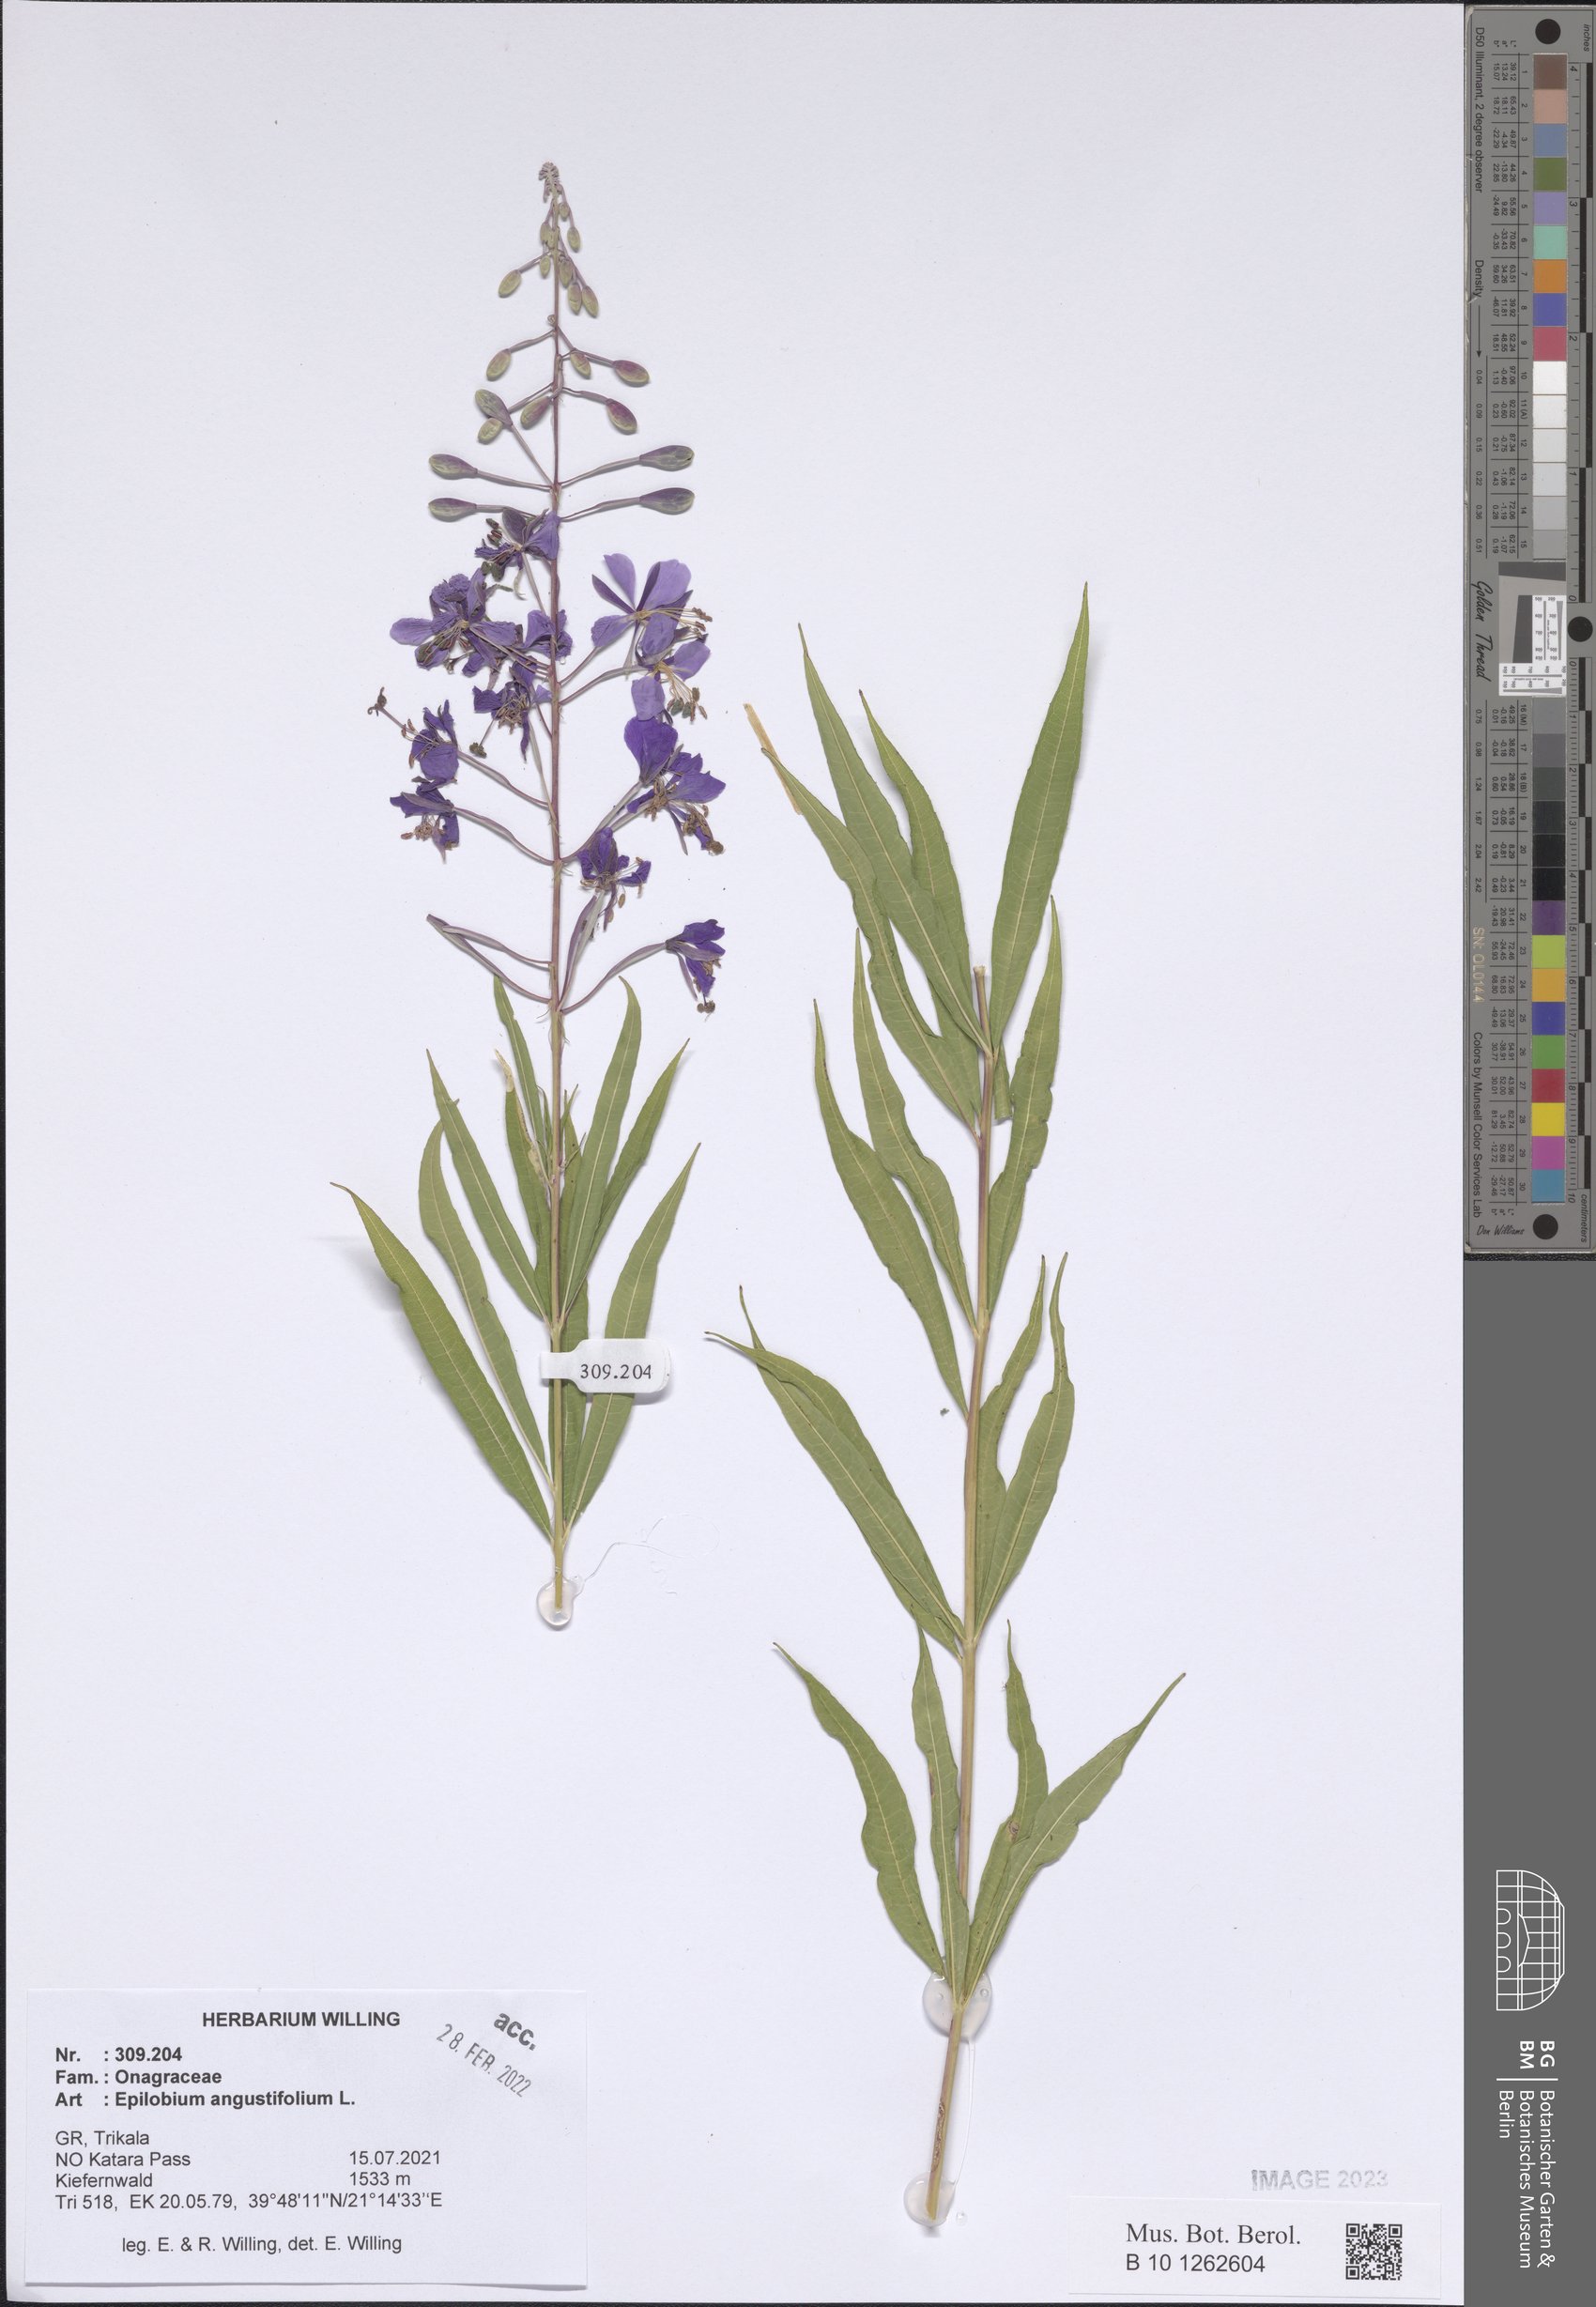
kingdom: Plantae
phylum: Tracheophyta
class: Magnoliopsida
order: Myrtales
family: Onagraceae
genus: Chamaenerion
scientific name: Chamaenerion angustifolium
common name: Fireweed
